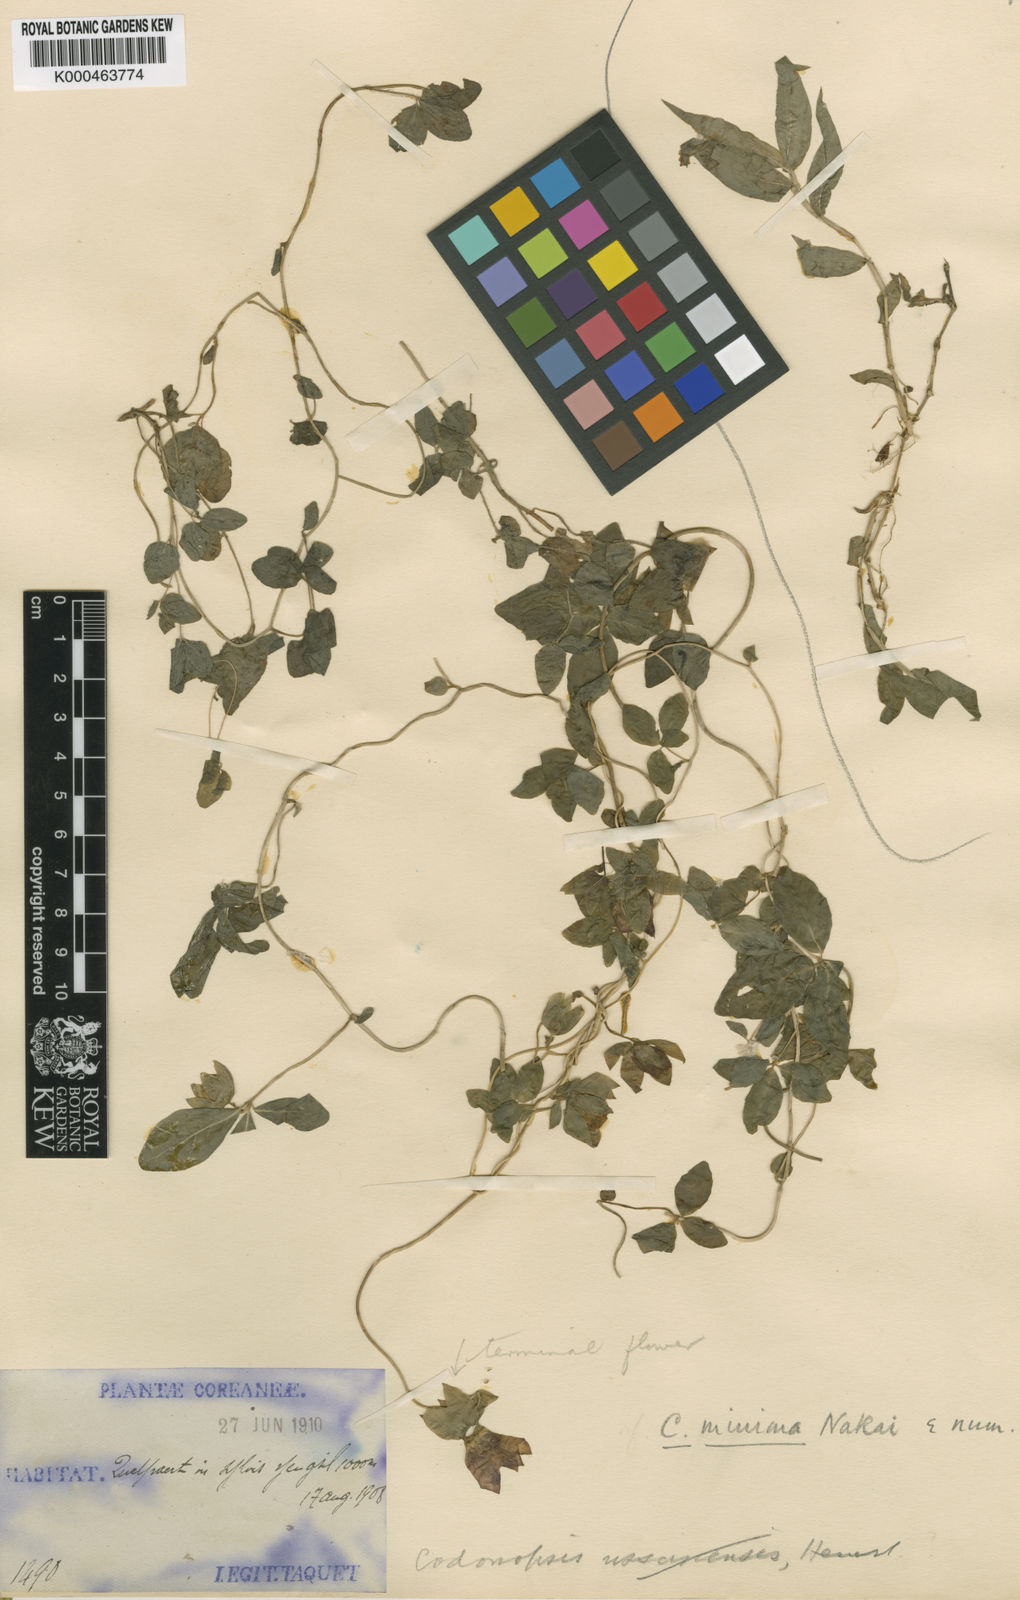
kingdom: Plantae
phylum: Tracheophyta
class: Magnoliopsida
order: Asterales
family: Campanulaceae
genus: Codonopsis
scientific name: Codonopsis ussuriensis
